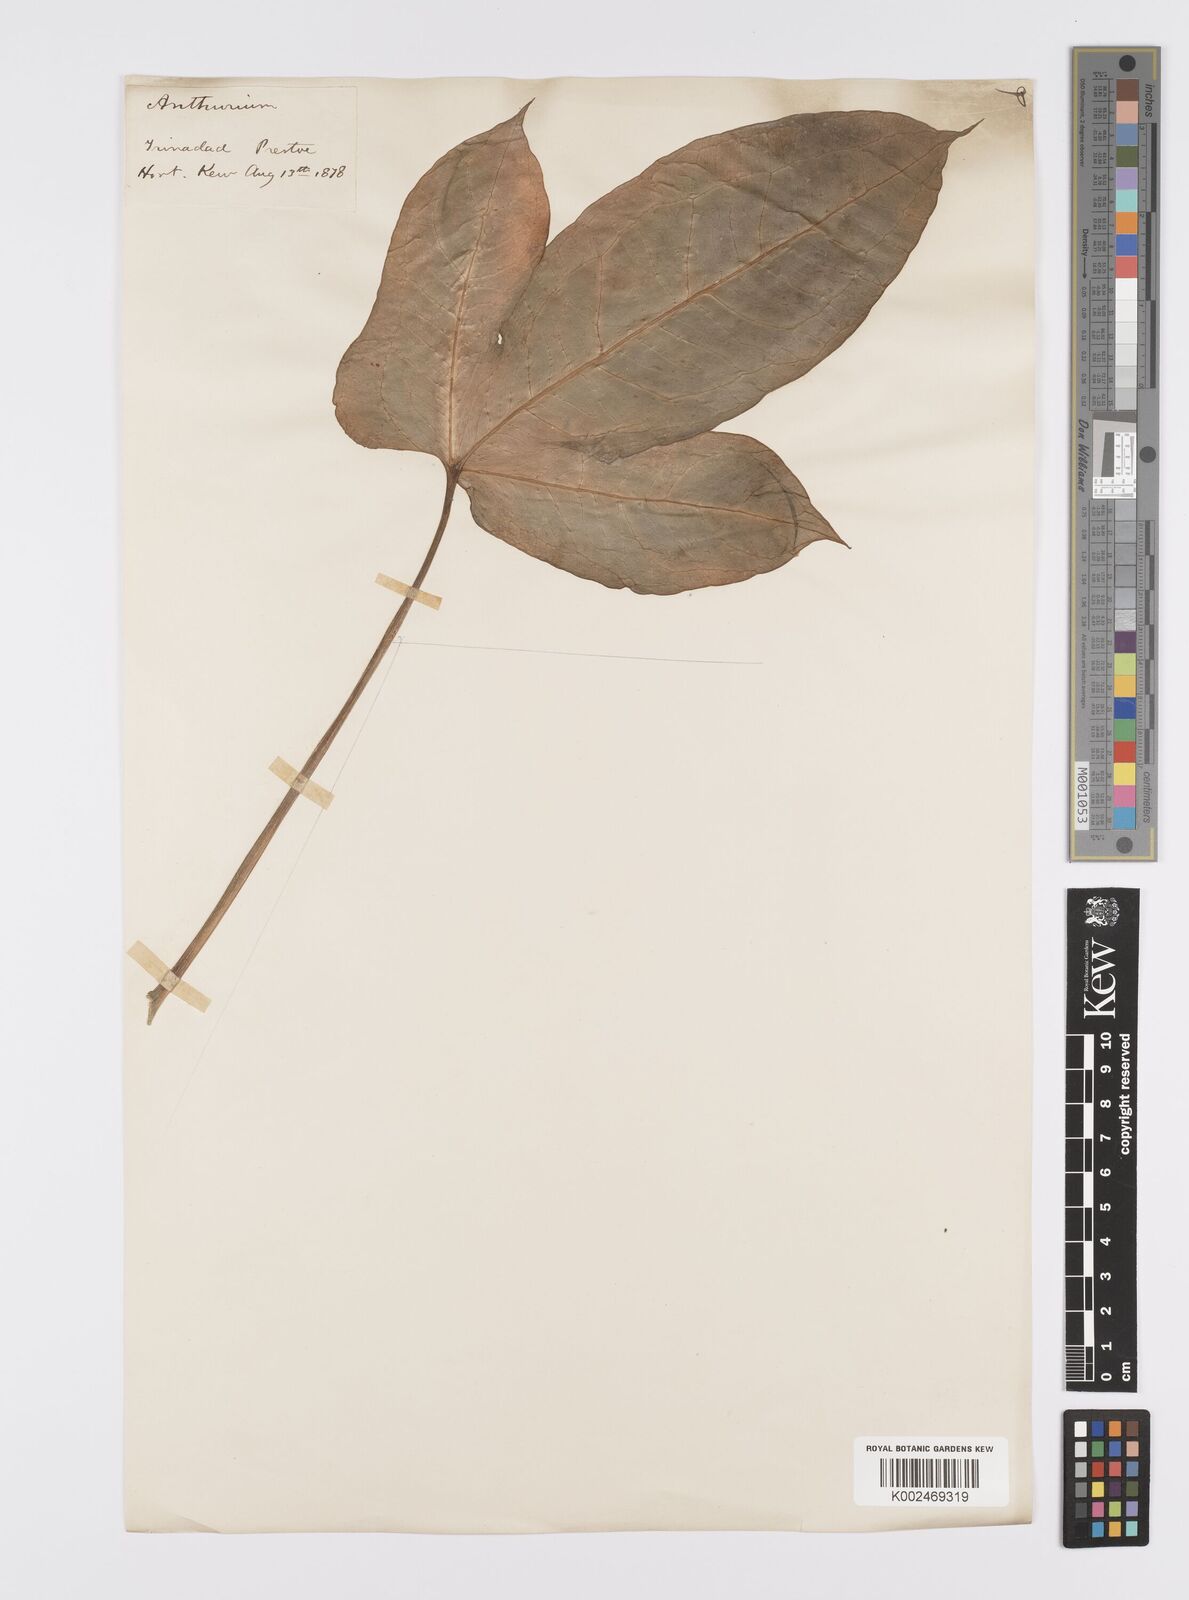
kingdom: Plantae
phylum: Tracheophyta
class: Liliopsida
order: Alismatales
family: Araceae
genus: Anthurium
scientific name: Anthurium
